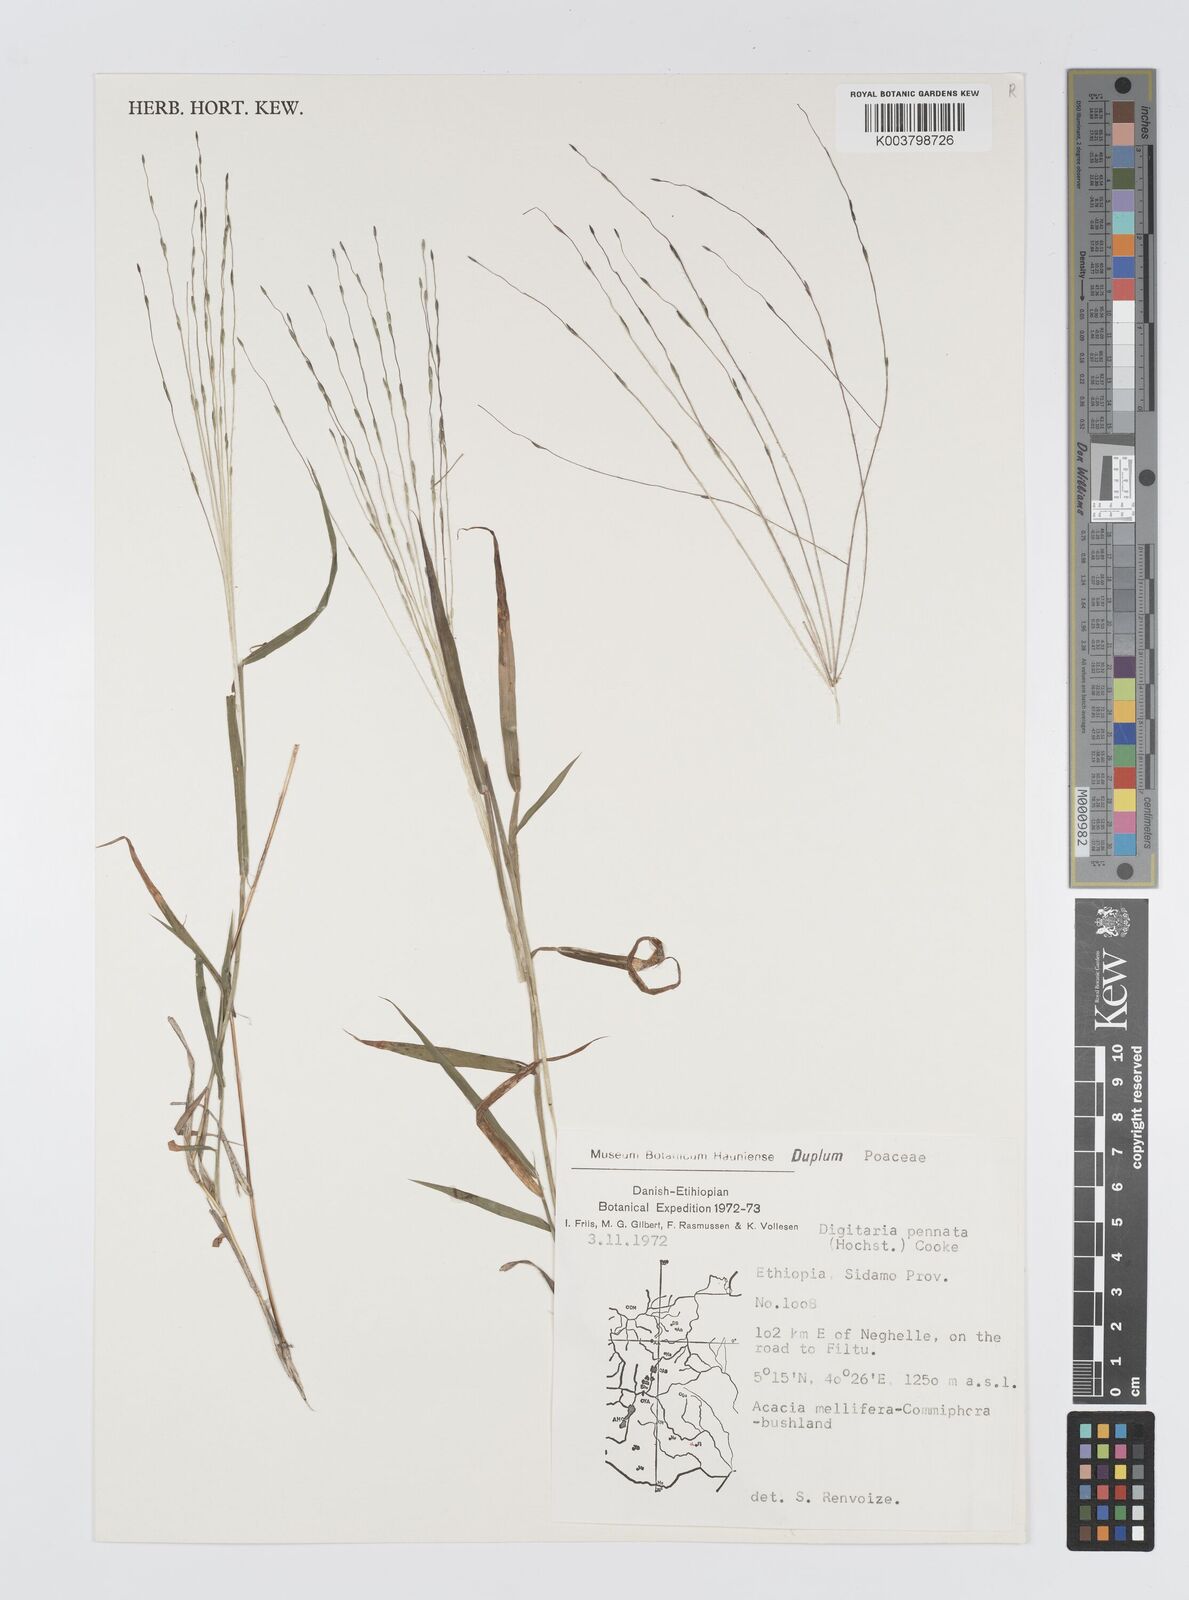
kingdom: Plantae
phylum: Tracheophyta
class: Liliopsida
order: Poales
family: Poaceae
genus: Digitaria
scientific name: Digitaria pennata
